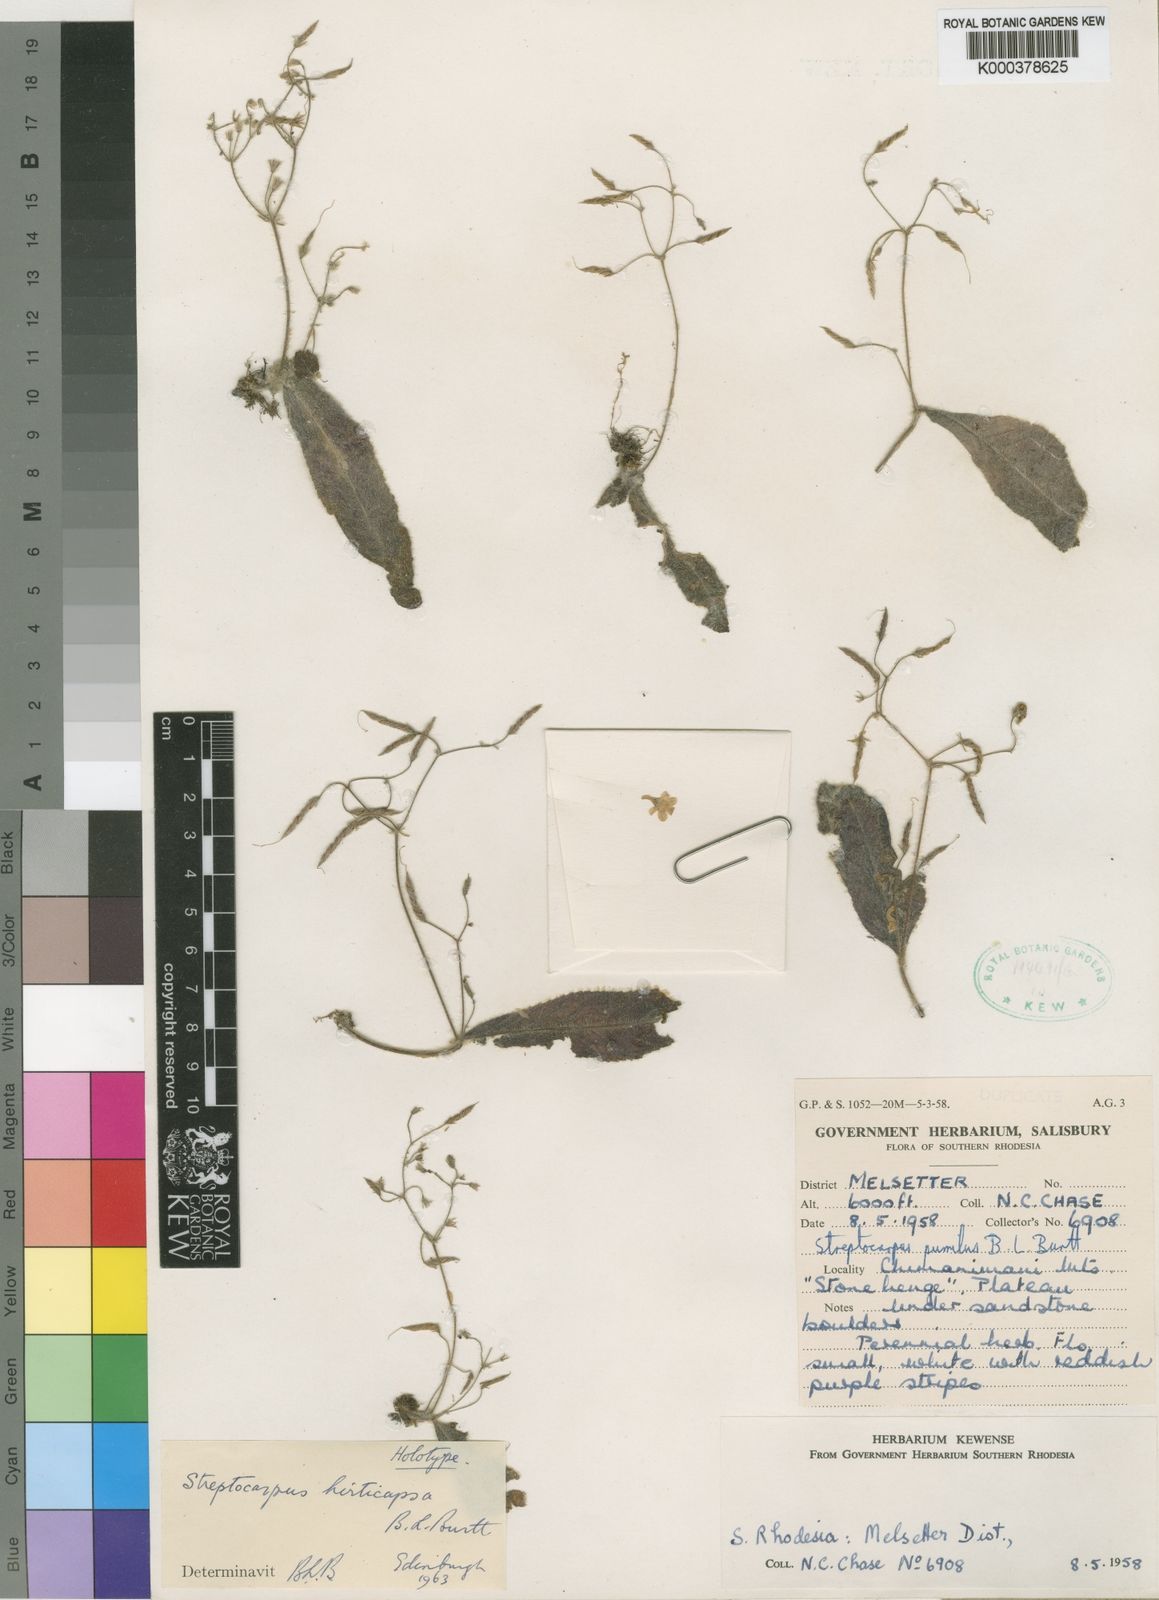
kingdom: Plantae
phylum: Tracheophyta
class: Magnoliopsida
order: Lamiales
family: Gesneriaceae
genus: Streptocarpus
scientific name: Streptocarpus hirticapsa
